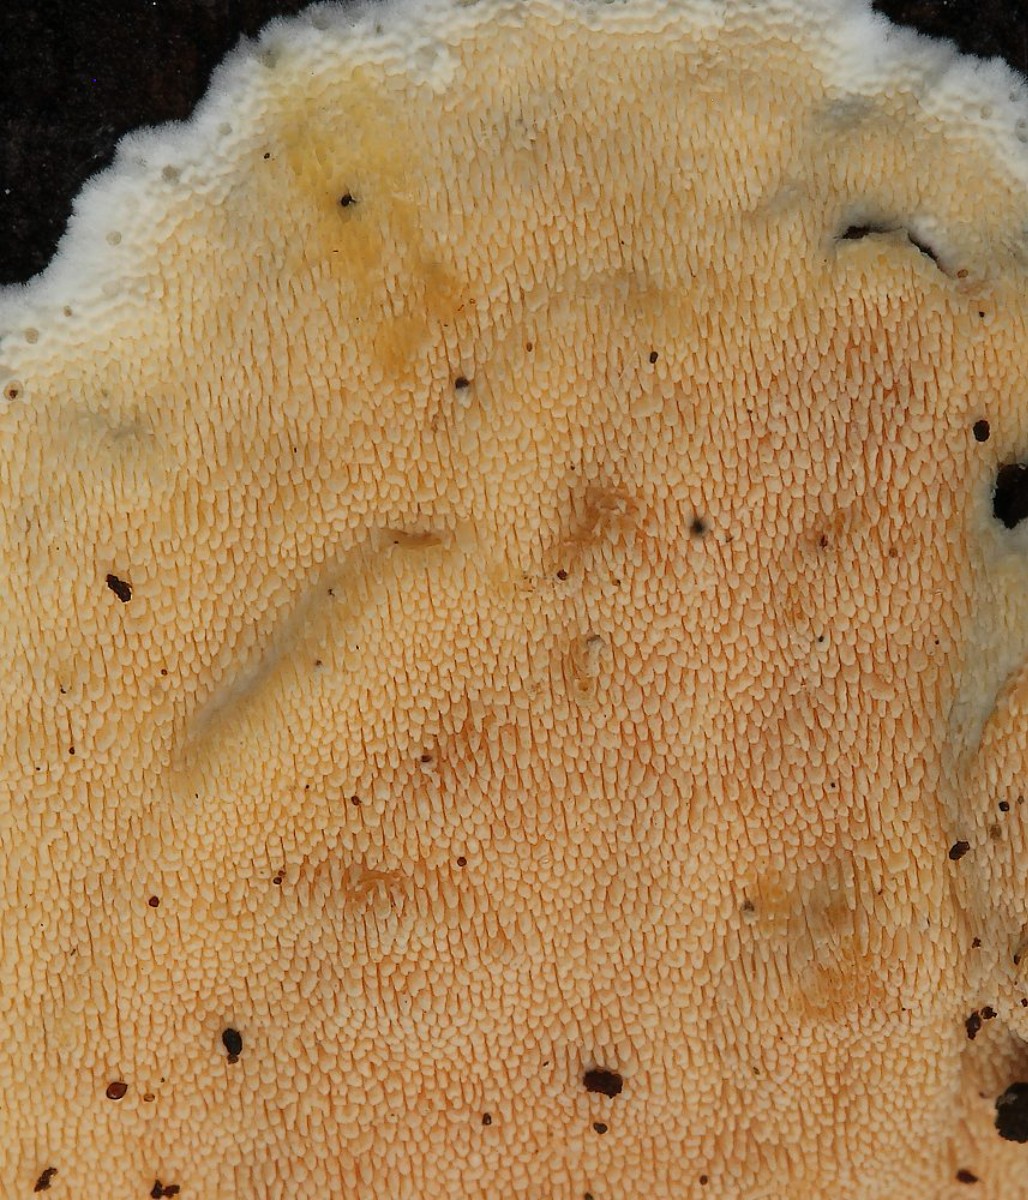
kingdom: Fungi
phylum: Basidiomycota
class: Agaricomycetes
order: Polyporales
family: Steccherinaceae
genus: Steccherinum
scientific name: Steccherinum ochraceum
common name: almindelig skønpig
